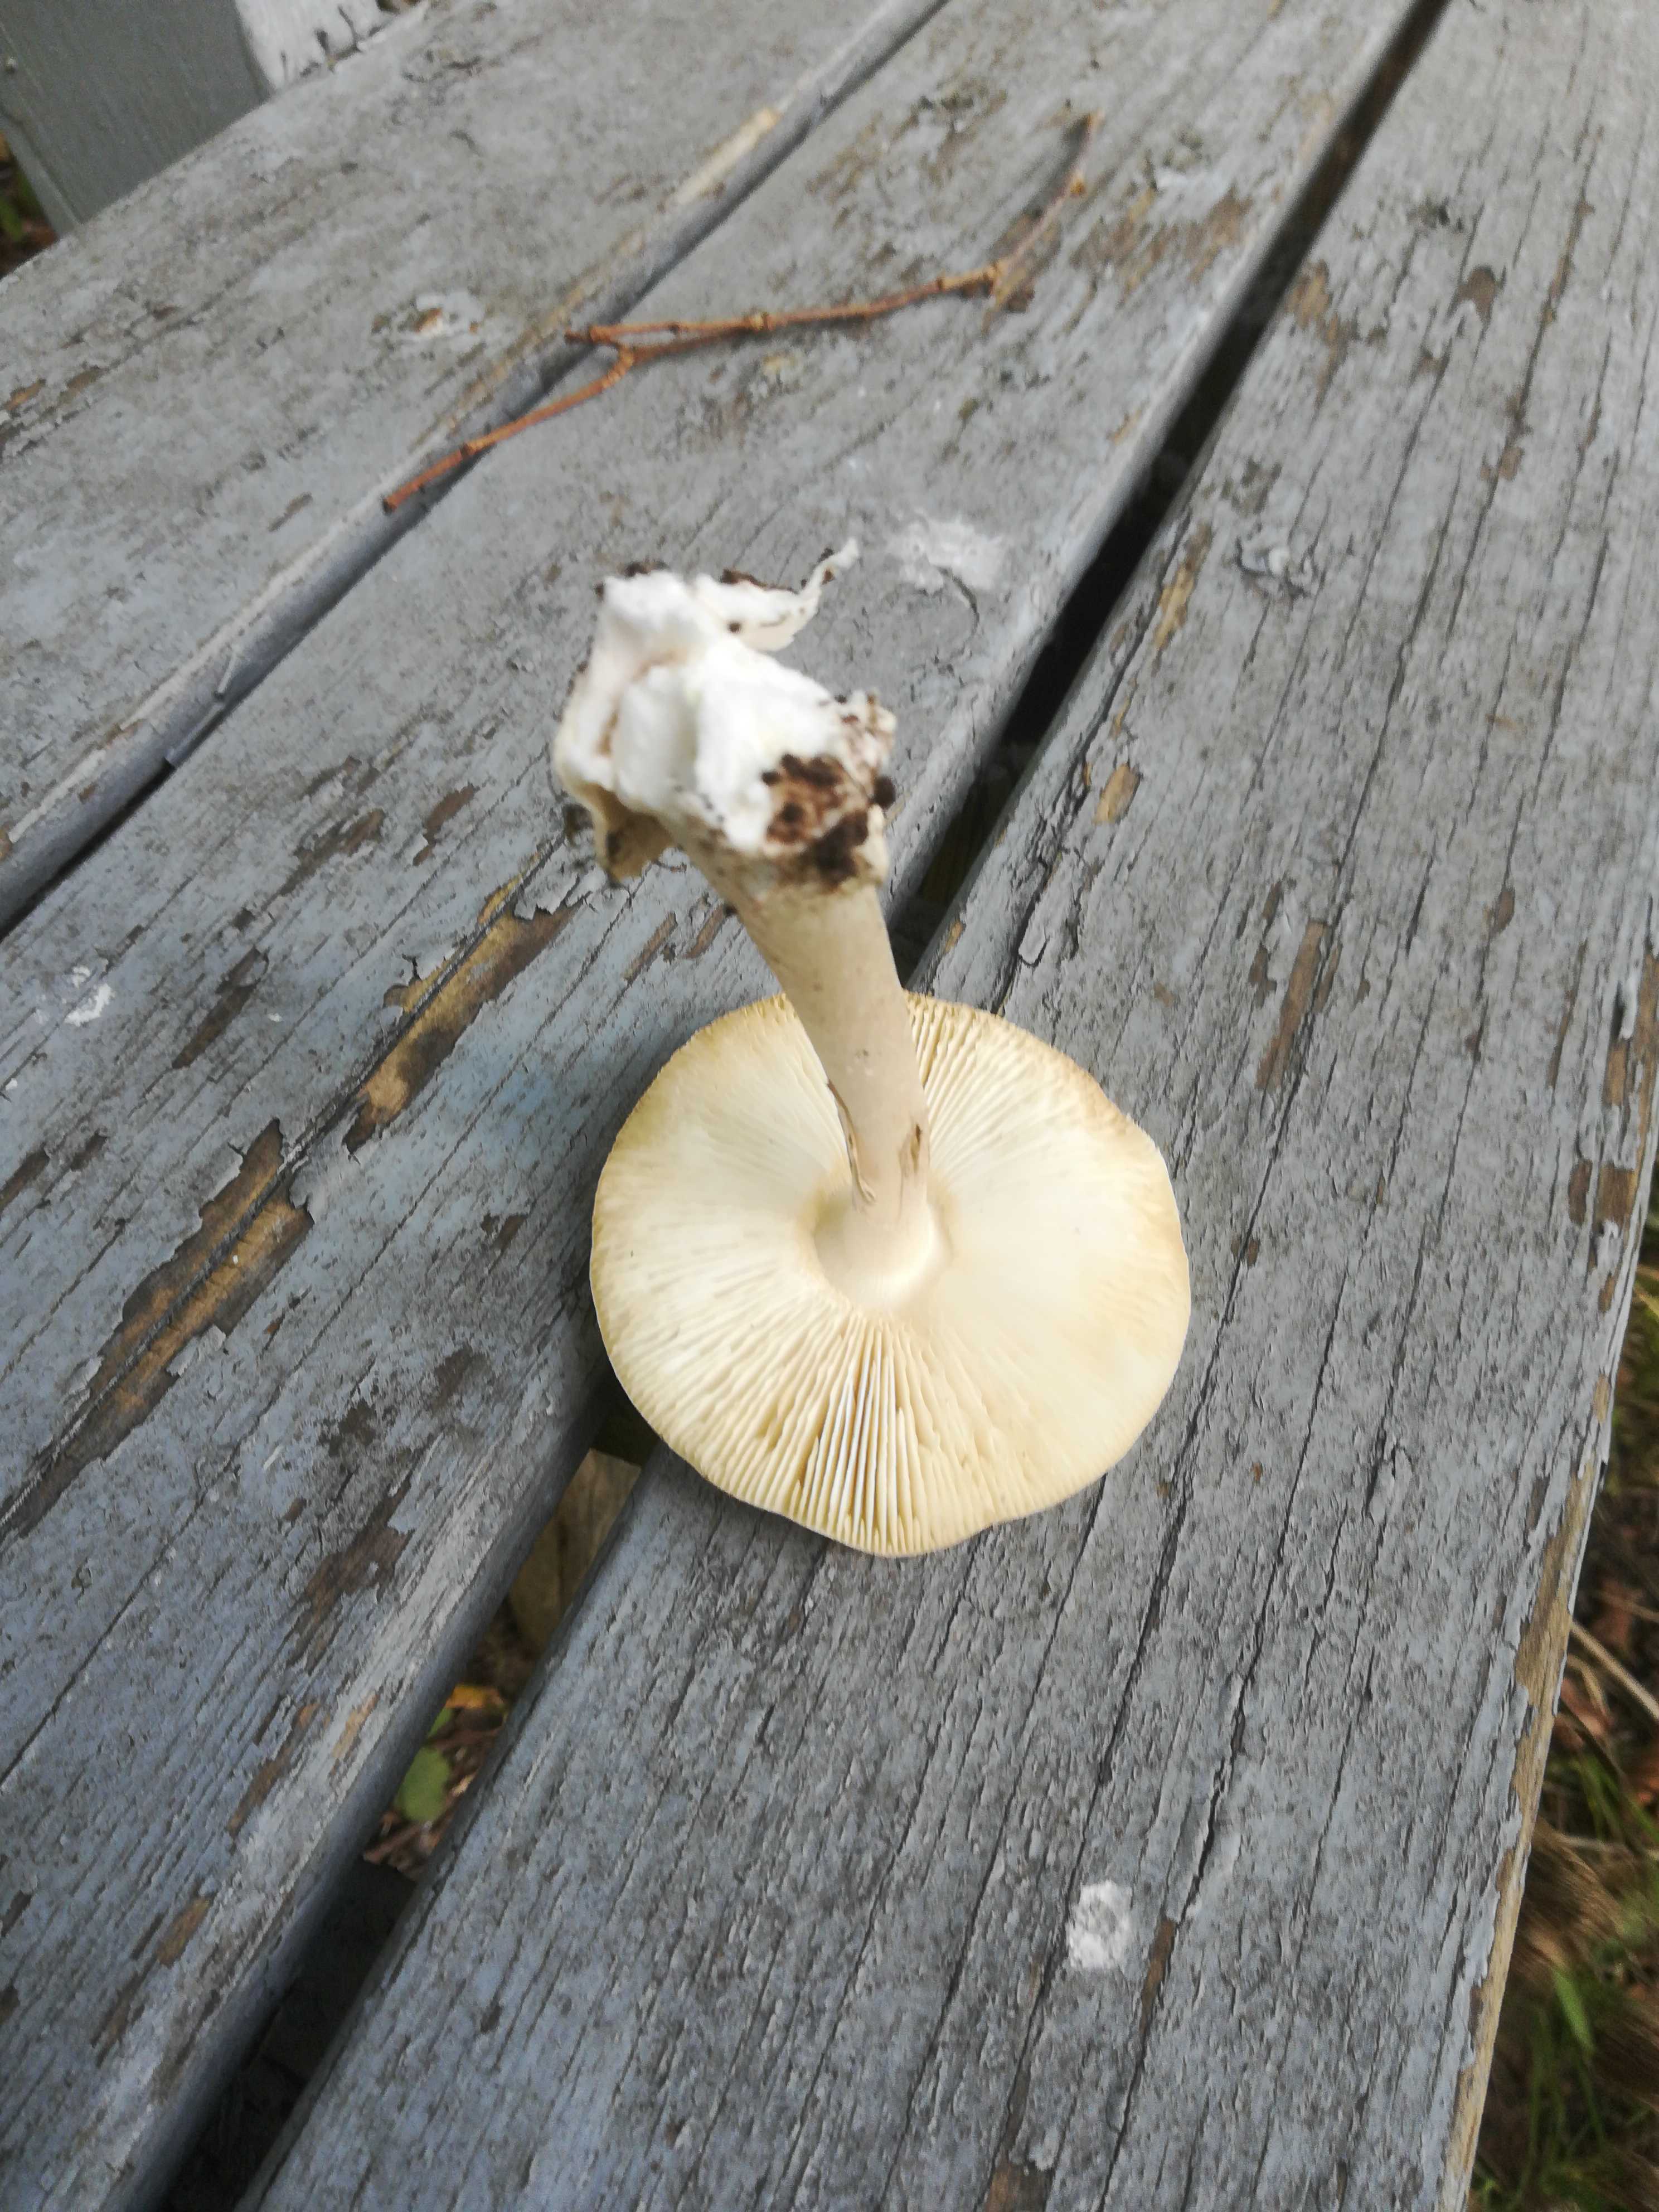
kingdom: Fungi
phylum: Basidiomycota
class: Agaricomycetes
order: Agaricales
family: Amanitaceae
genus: Amanita
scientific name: Amanita phalloides
